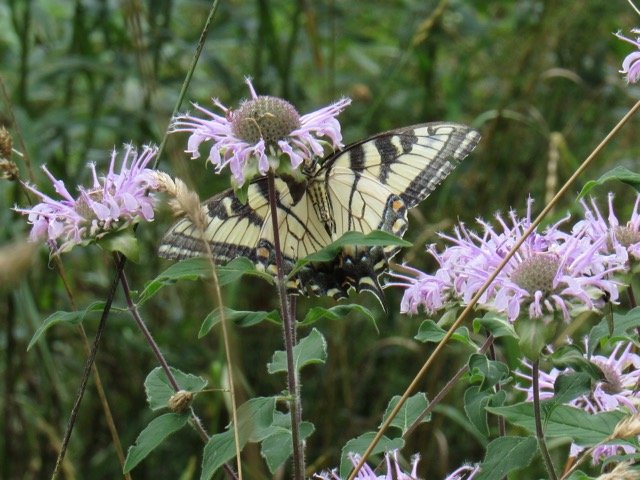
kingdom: Animalia
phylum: Arthropoda
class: Insecta
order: Lepidoptera
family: Papilionidae
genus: Pterourus
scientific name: Pterourus
